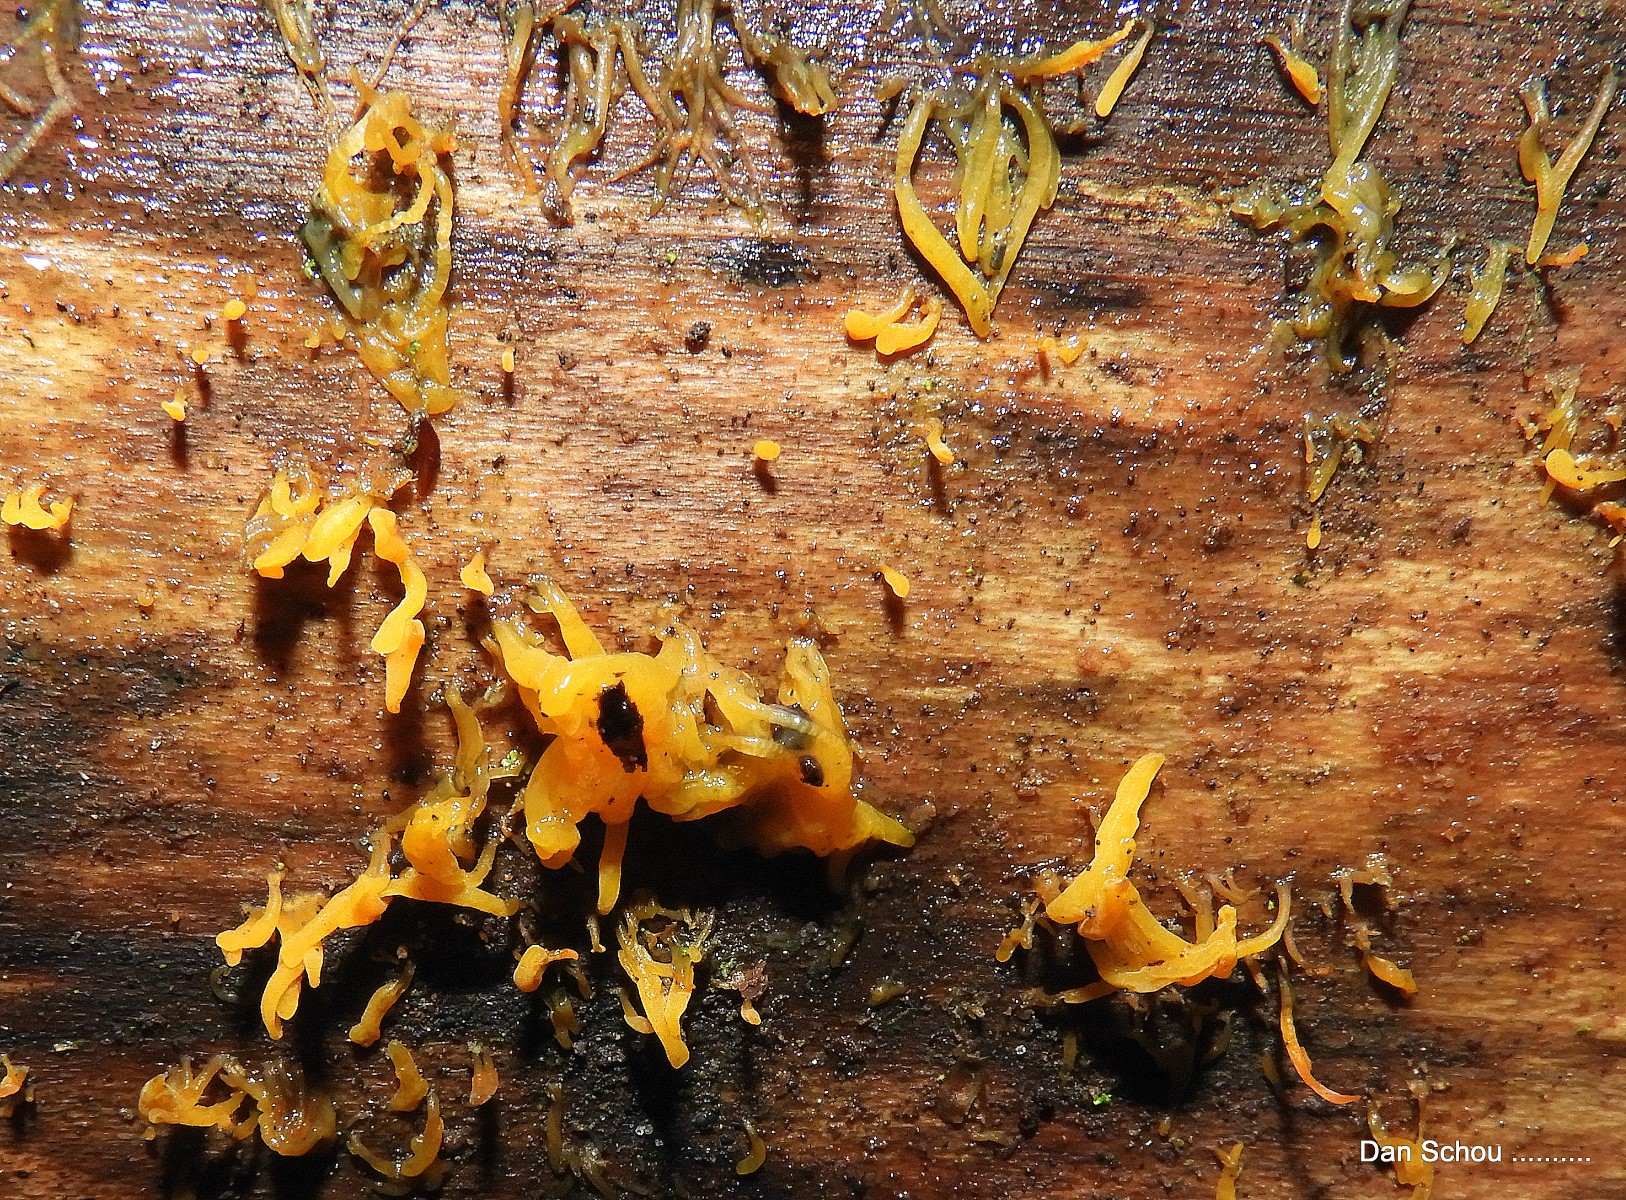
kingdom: Fungi
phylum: Basidiomycota
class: Dacrymycetes
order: Dacrymycetales
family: Dacrymycetaceae
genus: Calocera
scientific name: Calocera cornea
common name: liden guldgaffel
